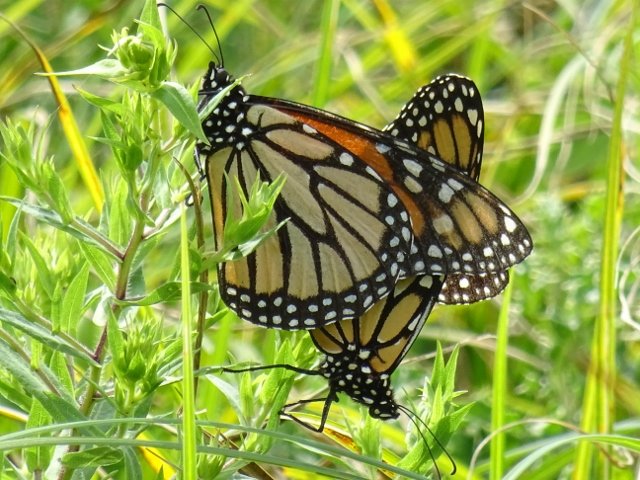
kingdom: Animalia
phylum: Arthropoda
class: Insecta
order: Lepidoptera
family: Nymphalidae
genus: Danaus
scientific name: Danaus plexippus
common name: Monarch
